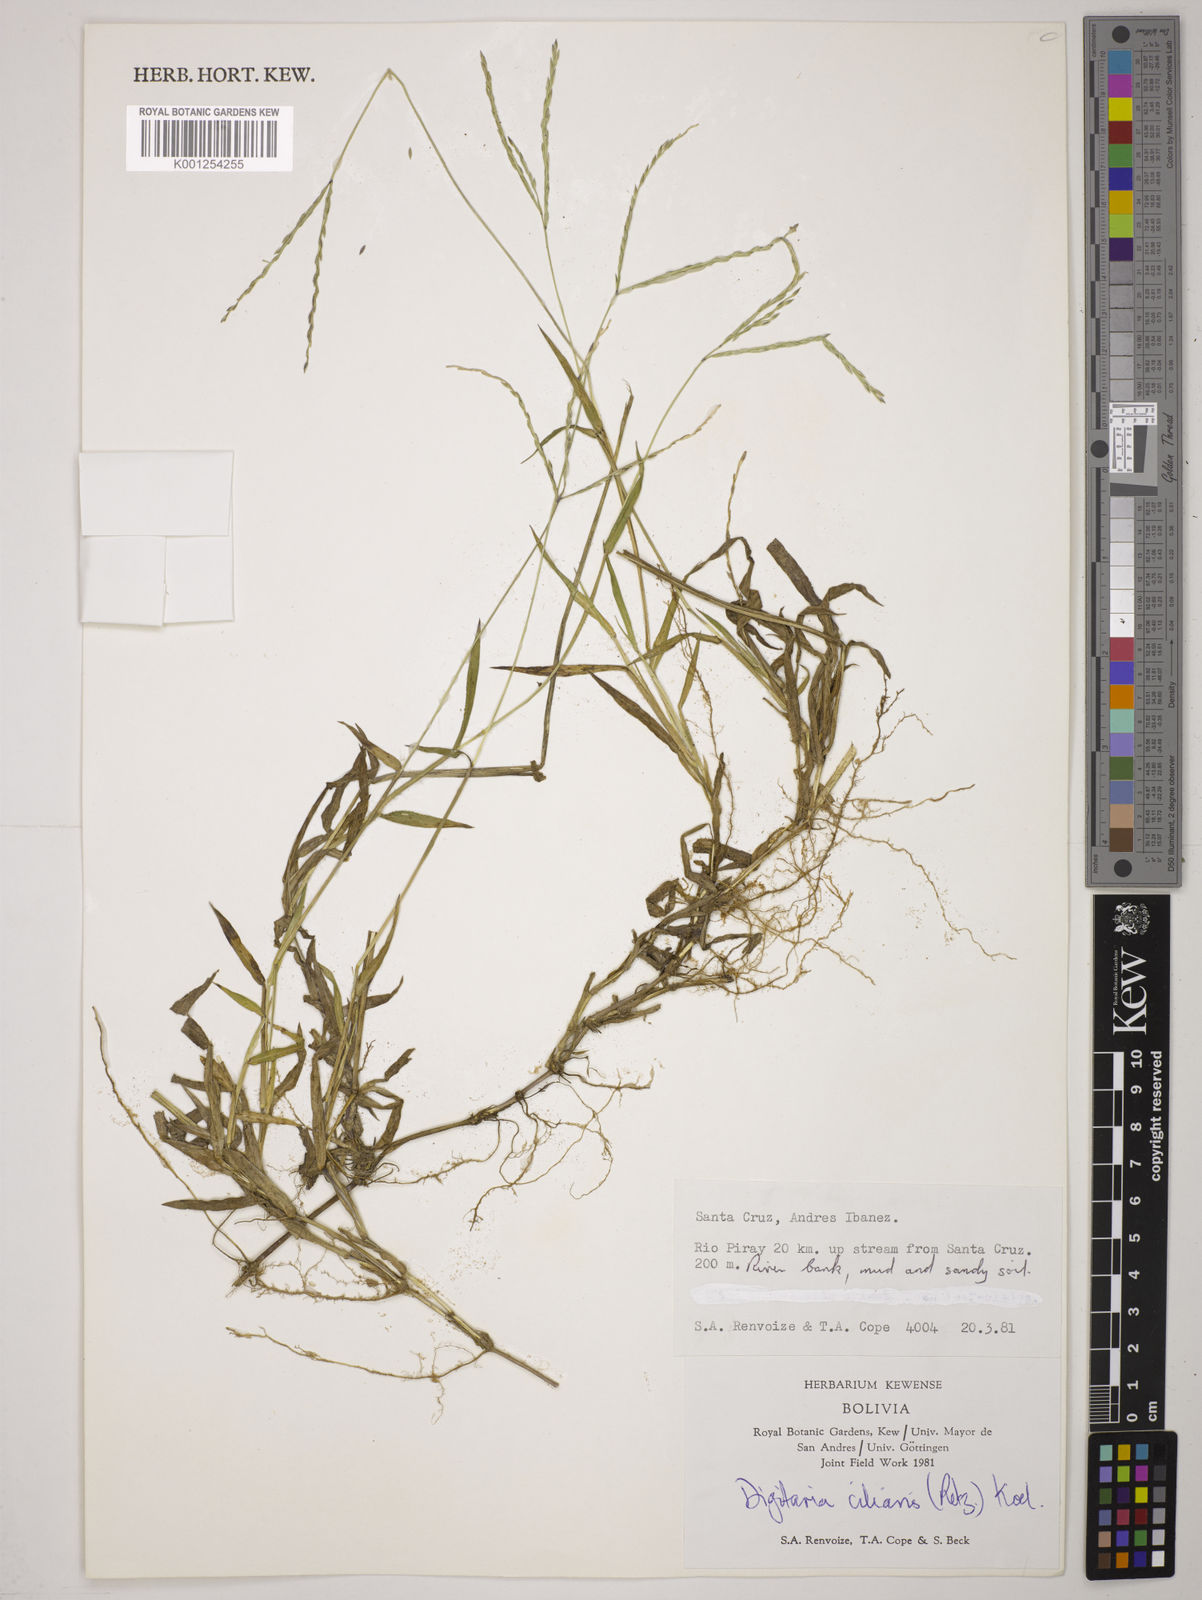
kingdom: Plantae
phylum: Tracheophyta
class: Liliopsida
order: Poales
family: Poaceae
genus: Digitaria
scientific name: Digitaria
